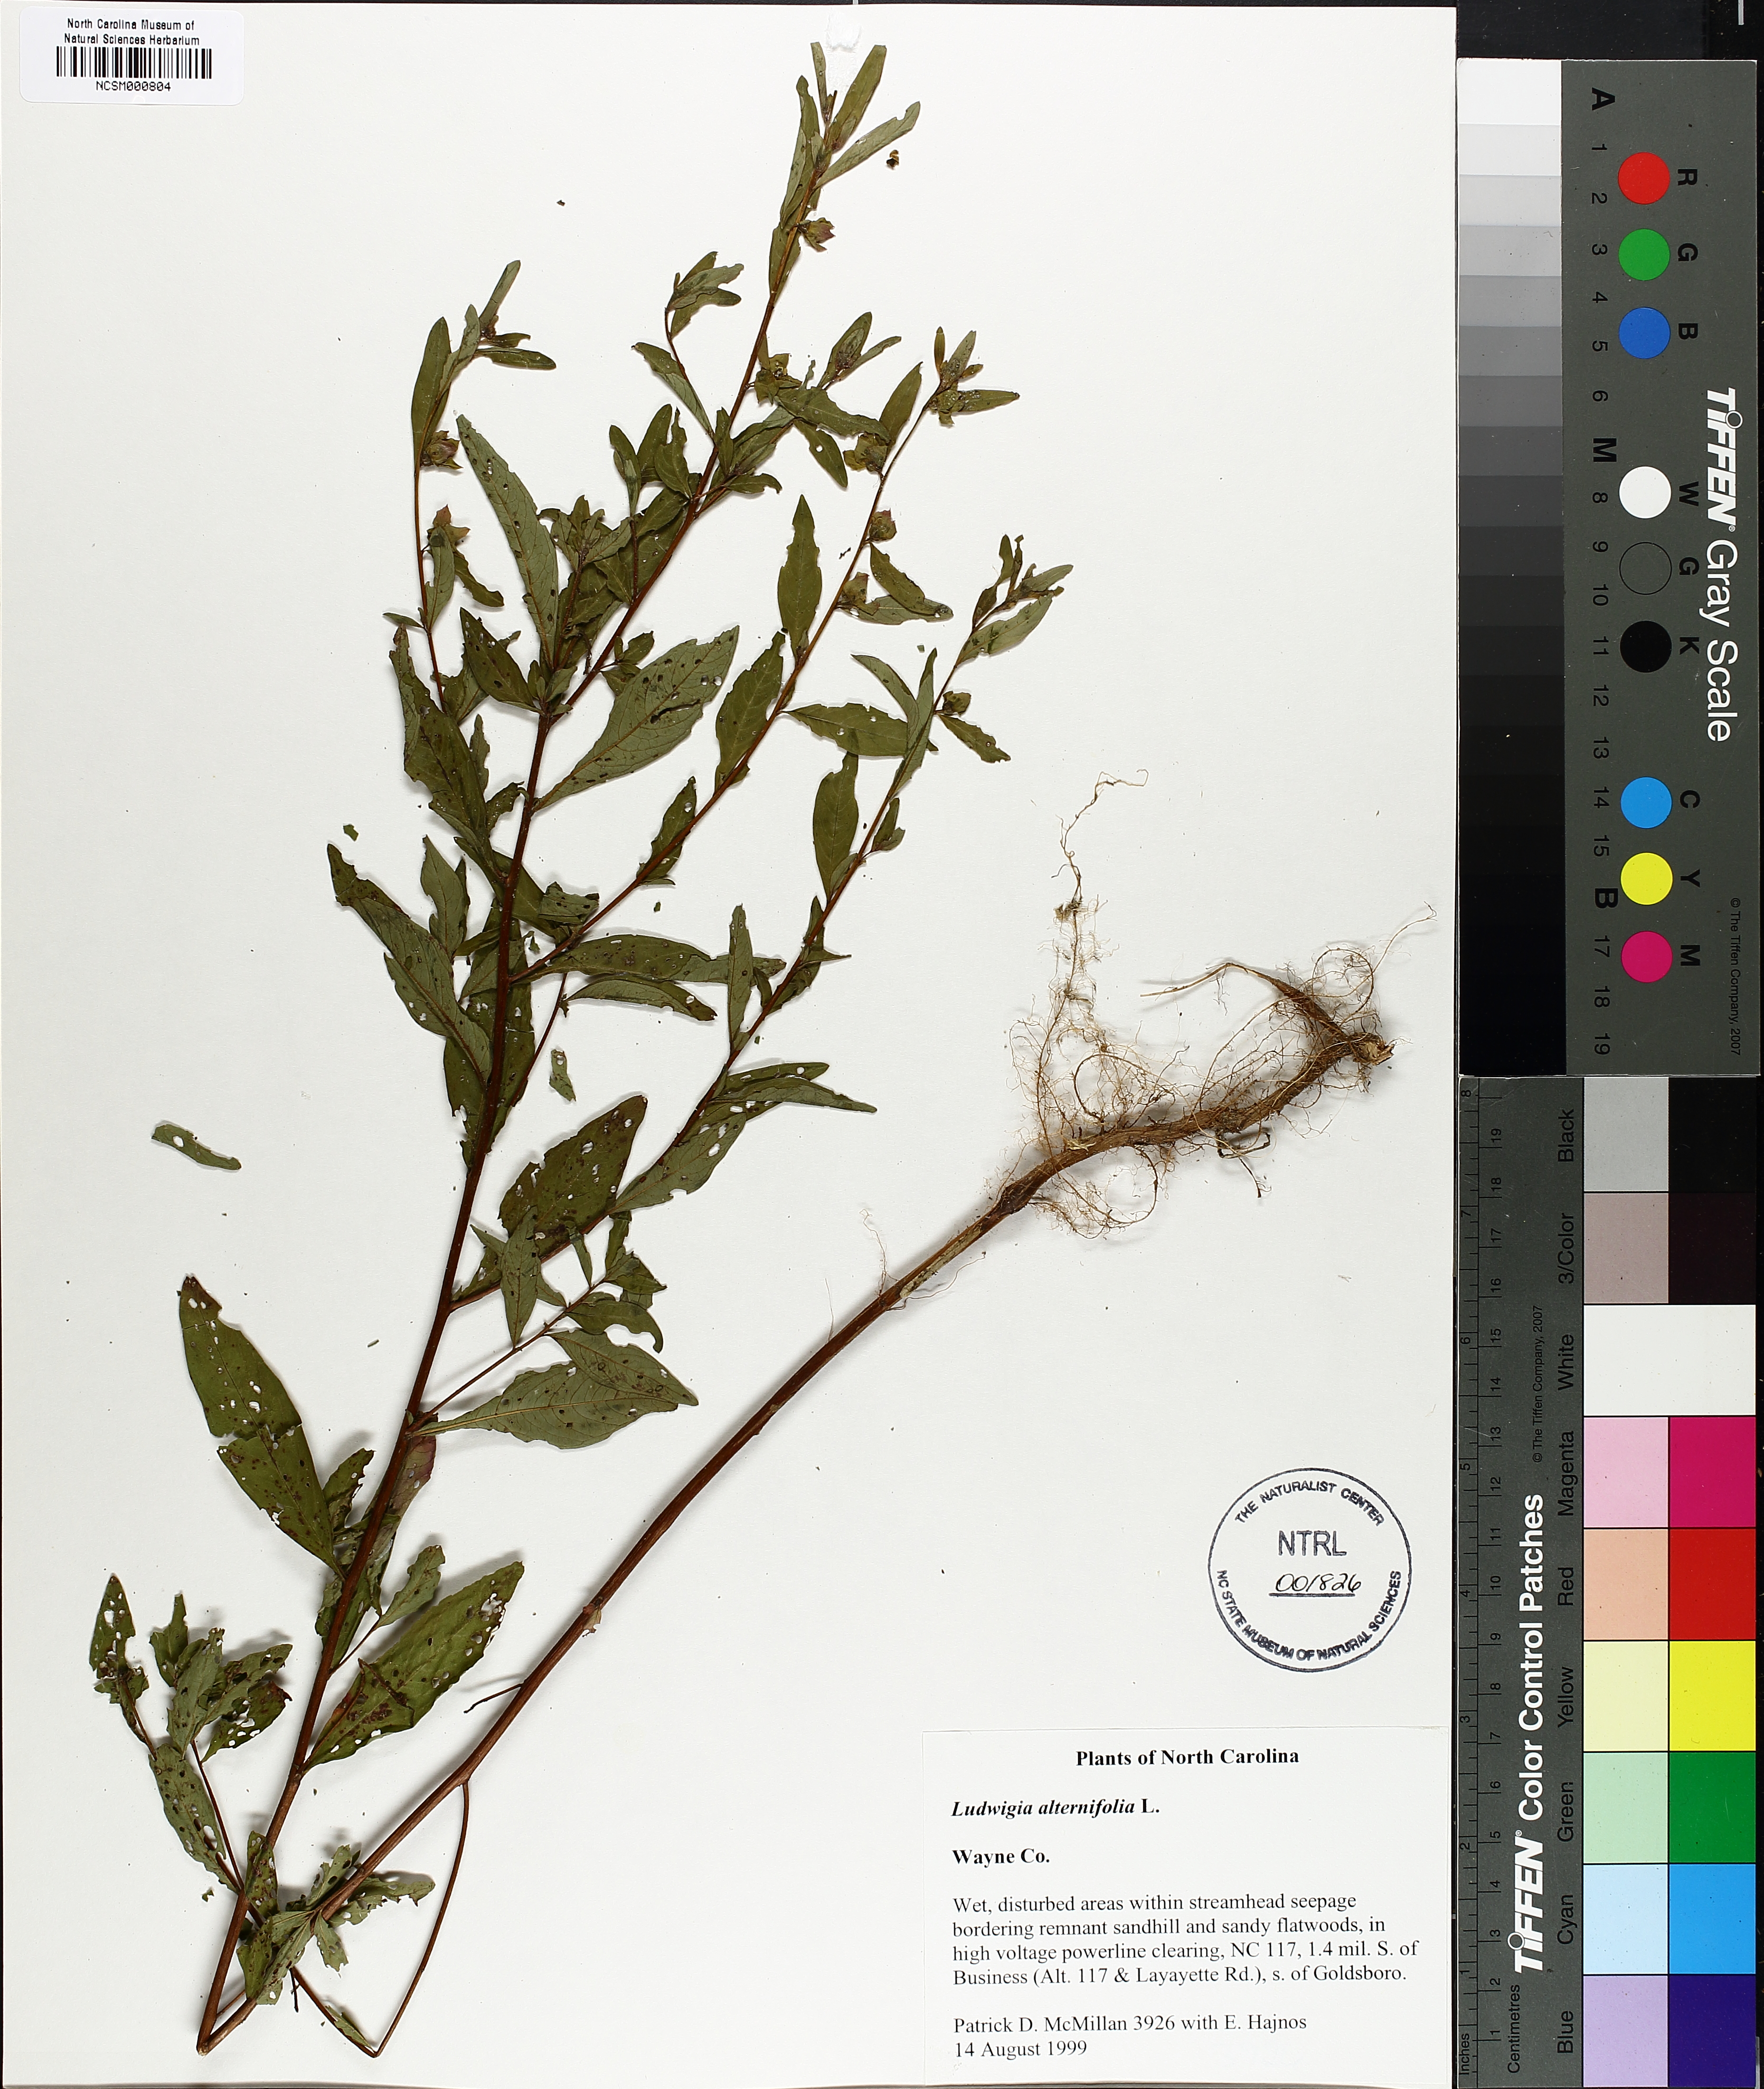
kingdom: Plantae
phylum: Tracheophyta
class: Magnoliopsida
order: Myrtales
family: Onagraceae
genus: Ludwigia
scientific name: Ludwigia alternifolia
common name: Rattlebox
